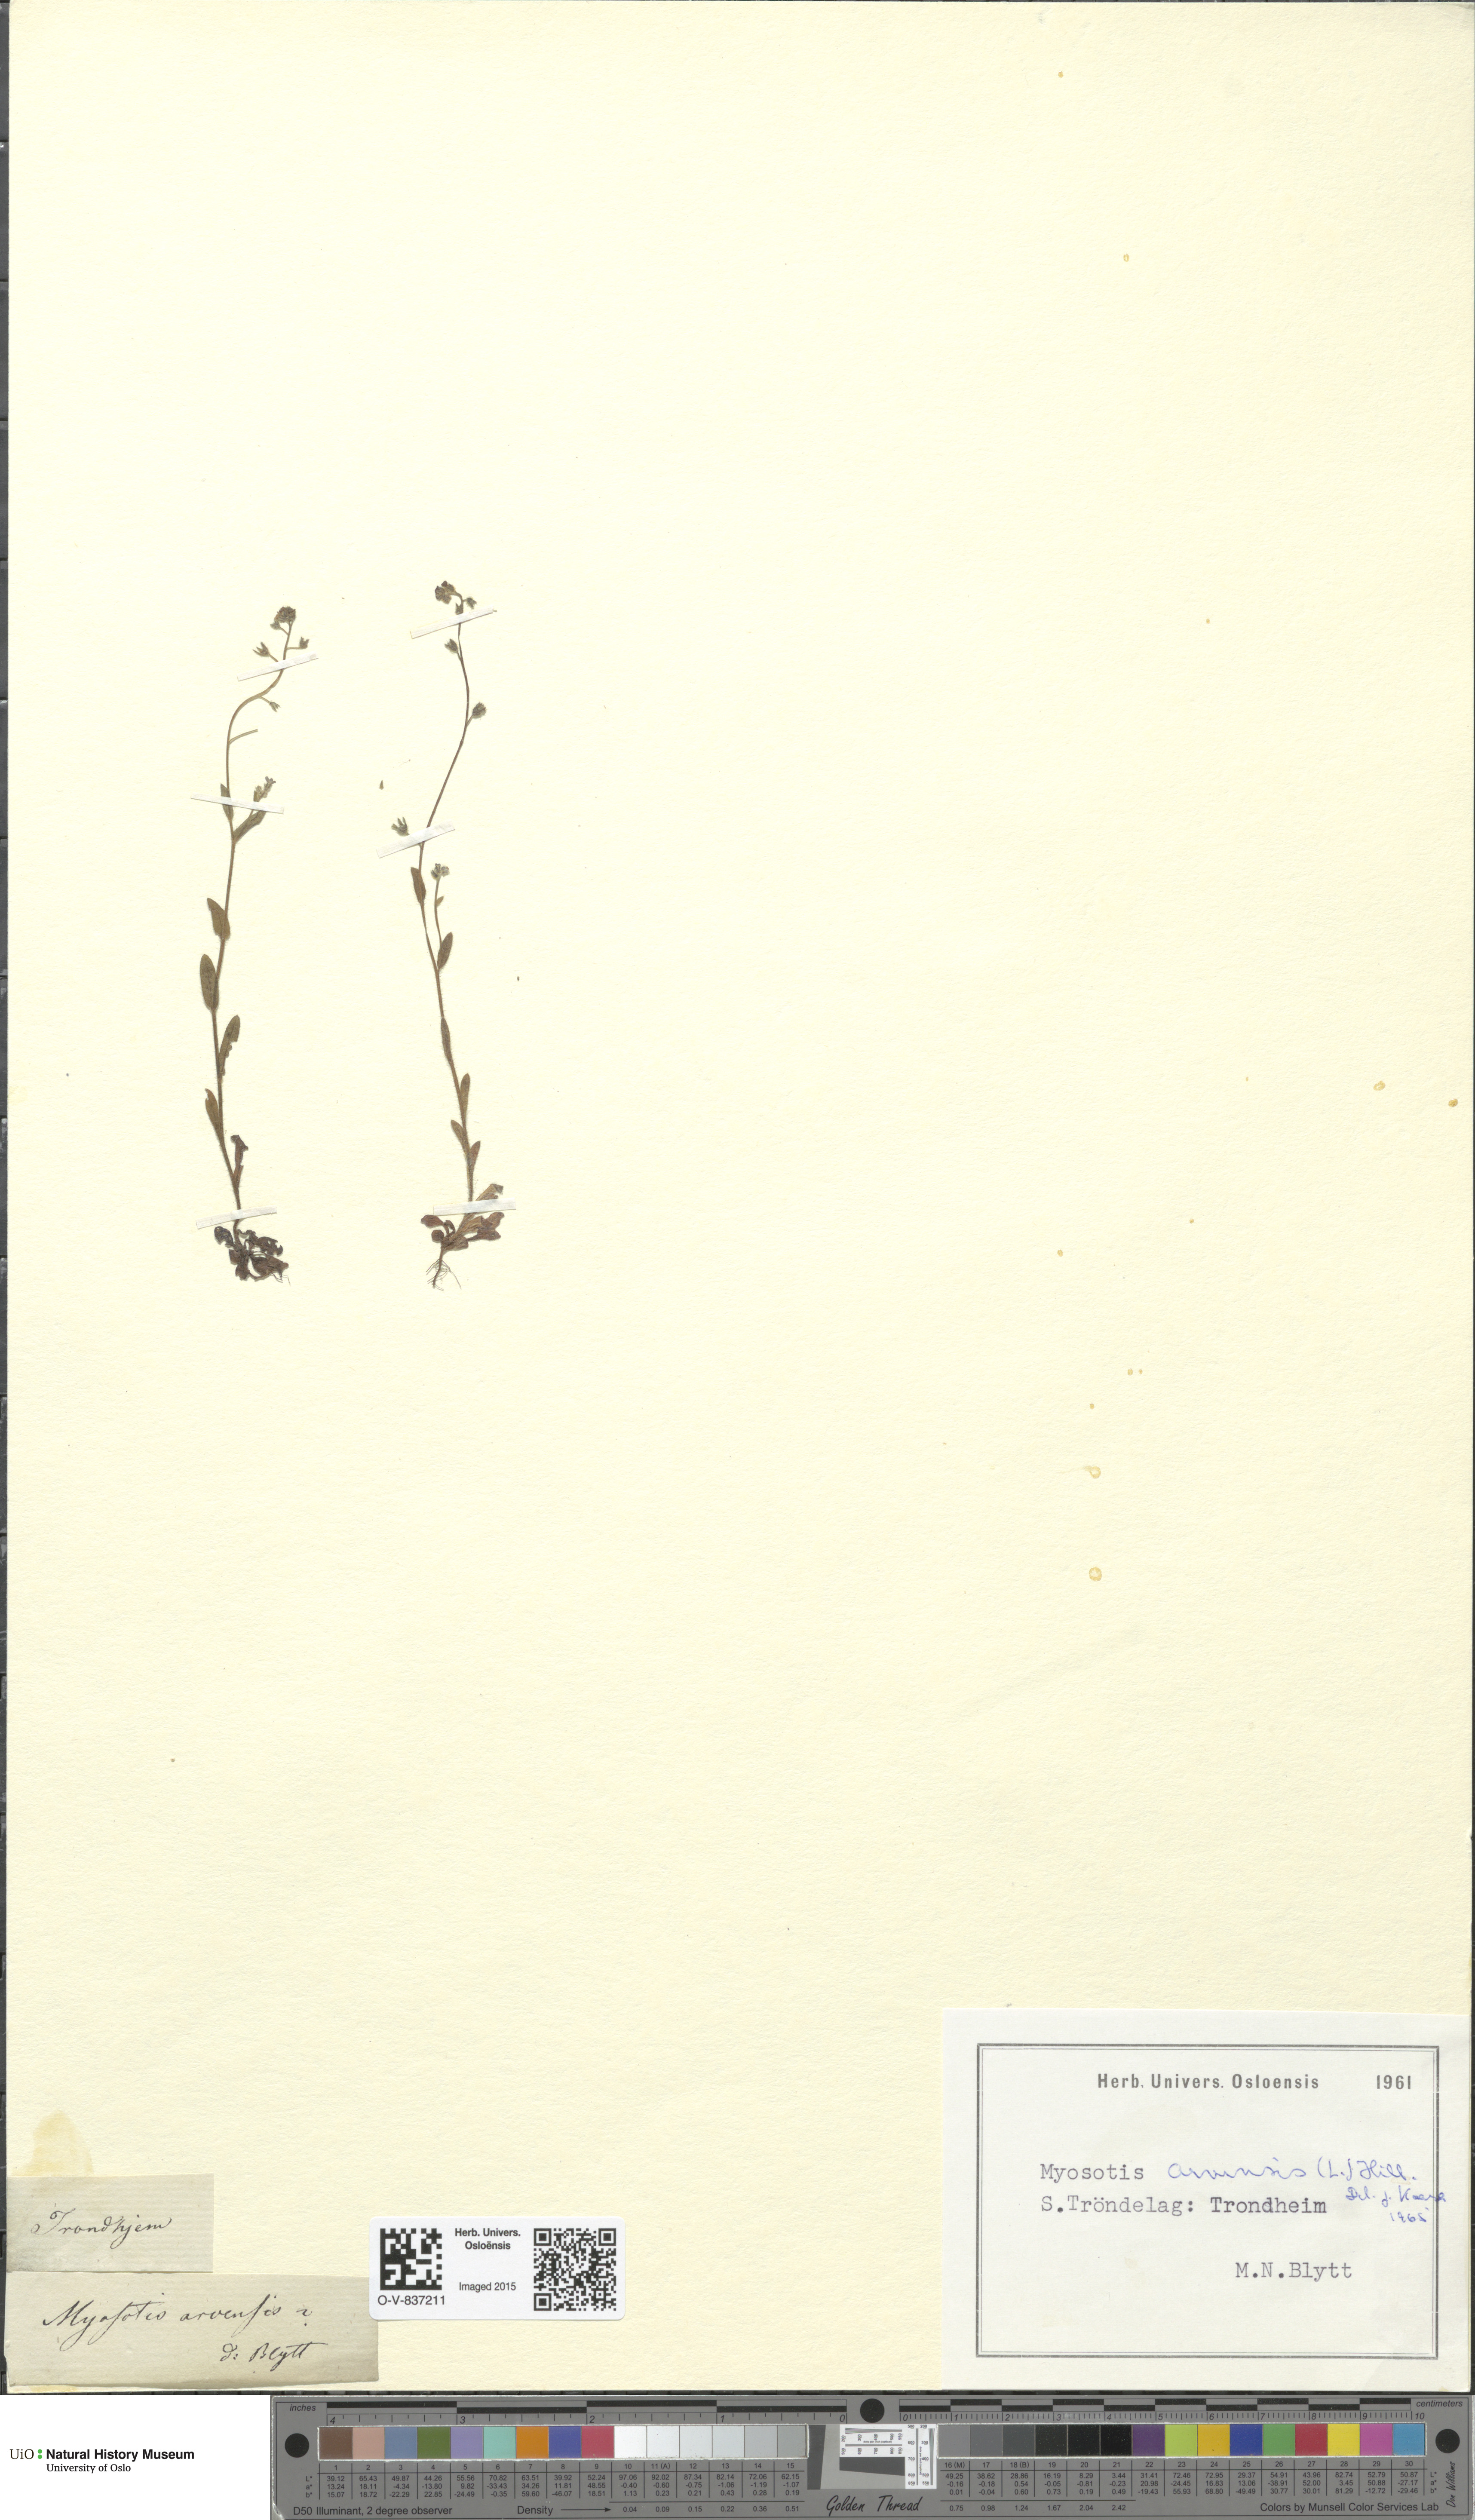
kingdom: Plantae
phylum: Tracheophyta
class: Magnoliopsida
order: Boraginales
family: Boraginaceae
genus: Myosotis
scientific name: Myosotis arvensis
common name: Field forget-me-not
